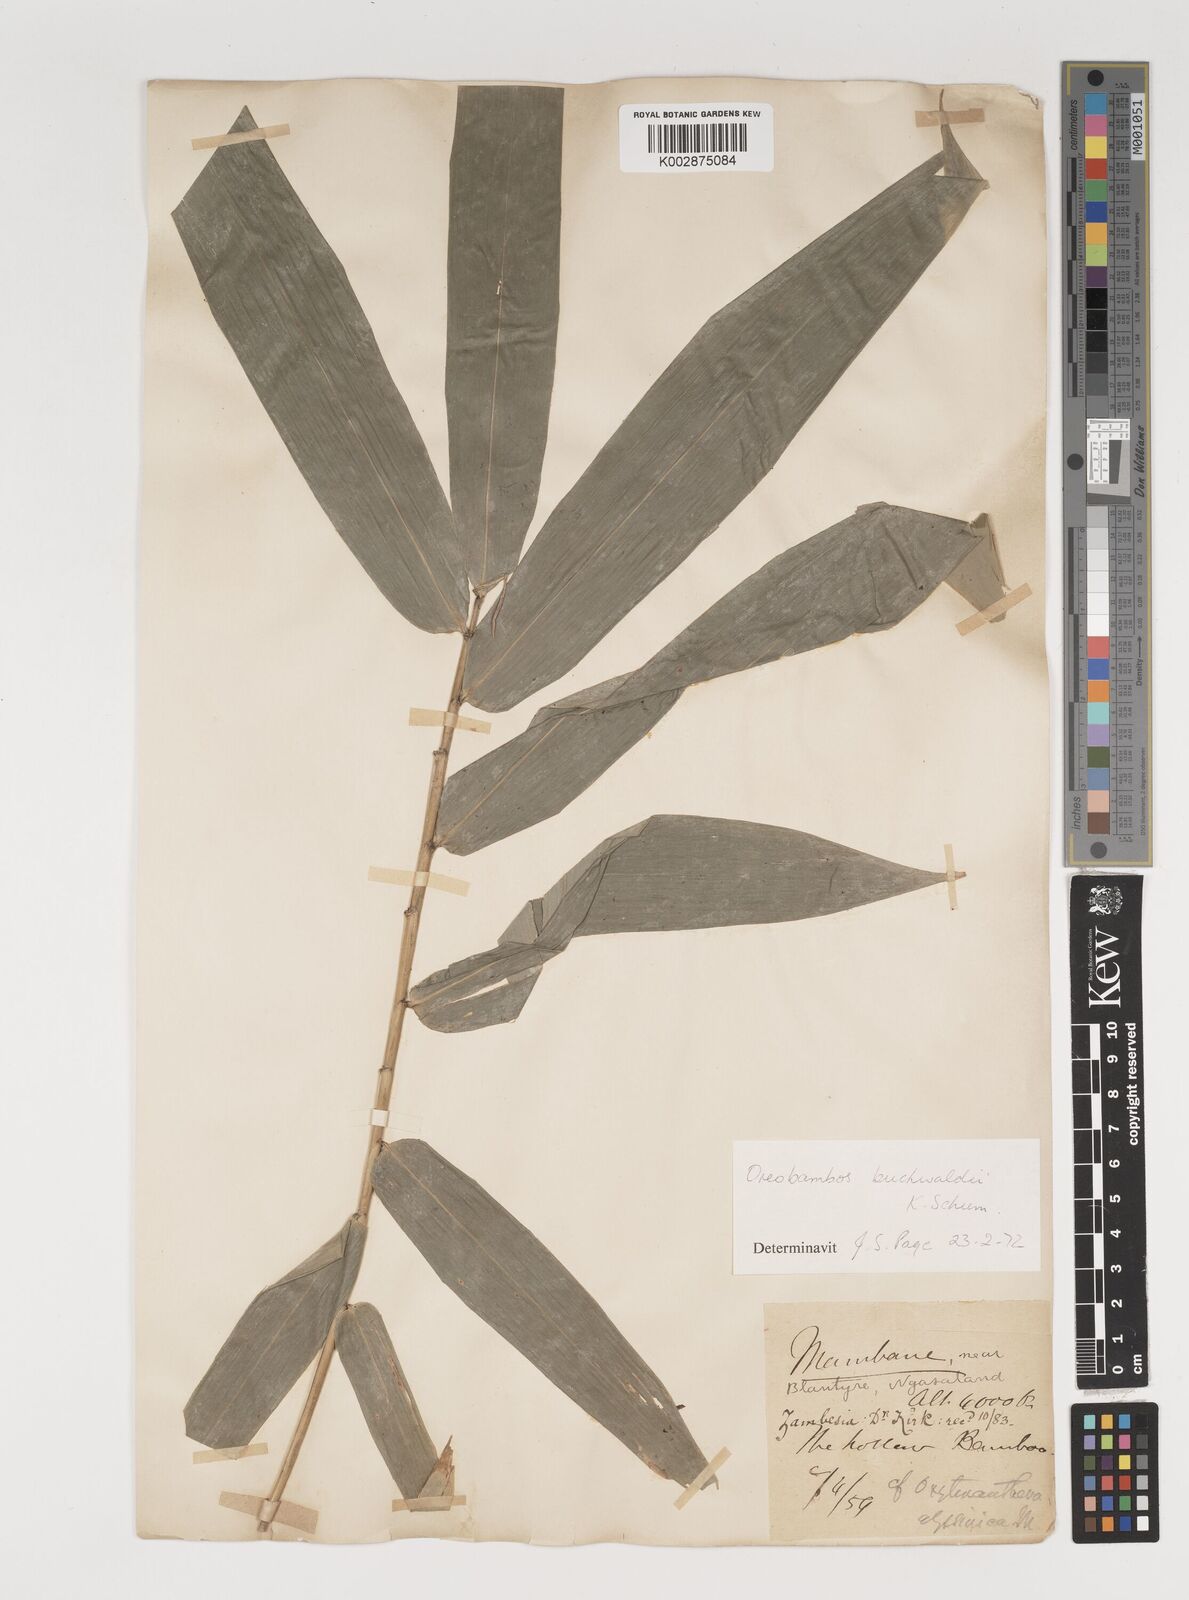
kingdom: Plantae
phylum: Tracheophyta
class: Liliopsida
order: Poales
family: Poaceae
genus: Oreobambos
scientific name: Oreobambos buchwaldii
